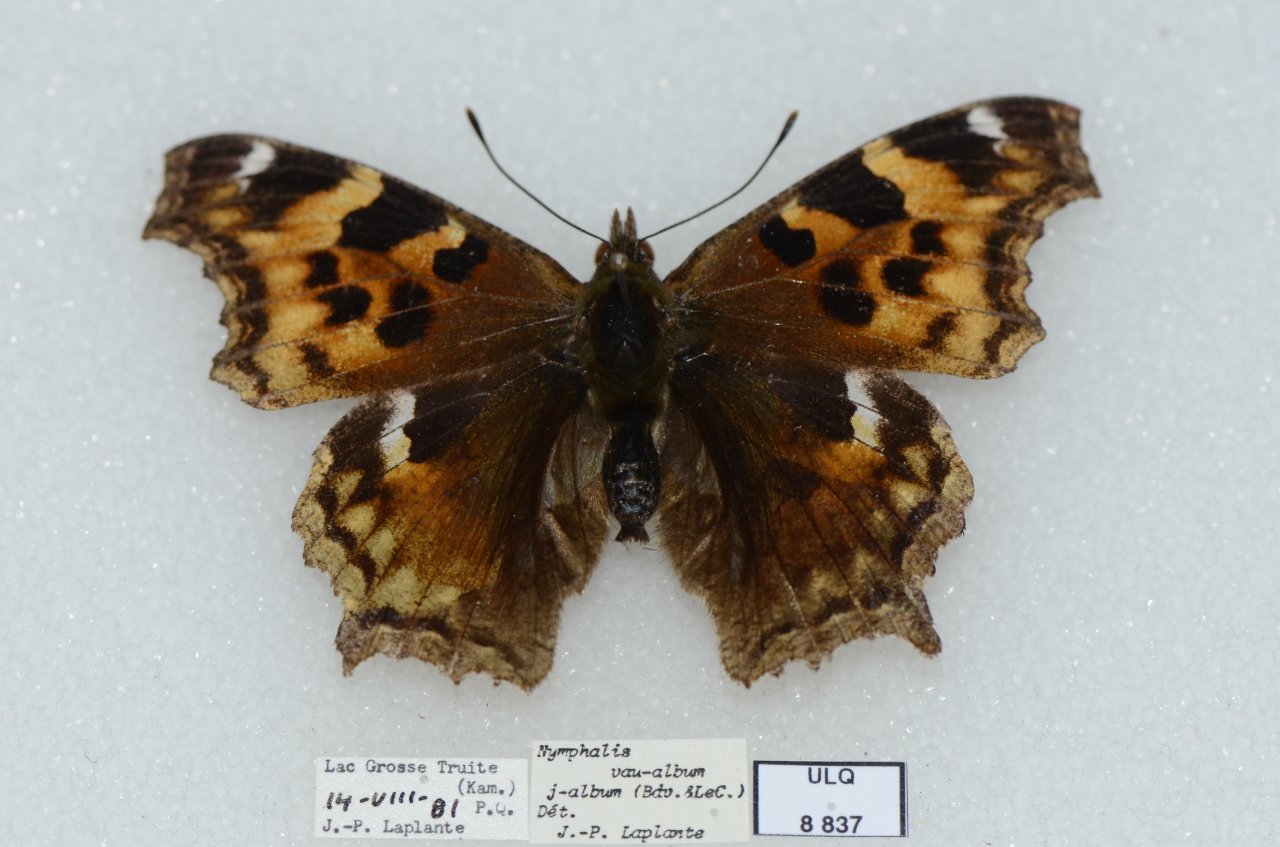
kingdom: Animalia
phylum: Arthropoda
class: Insecta
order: Lepidoptera
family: Nymphalidae
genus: Polygonia
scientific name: Polygonia vaualbum
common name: Compton Tortoiseshell
